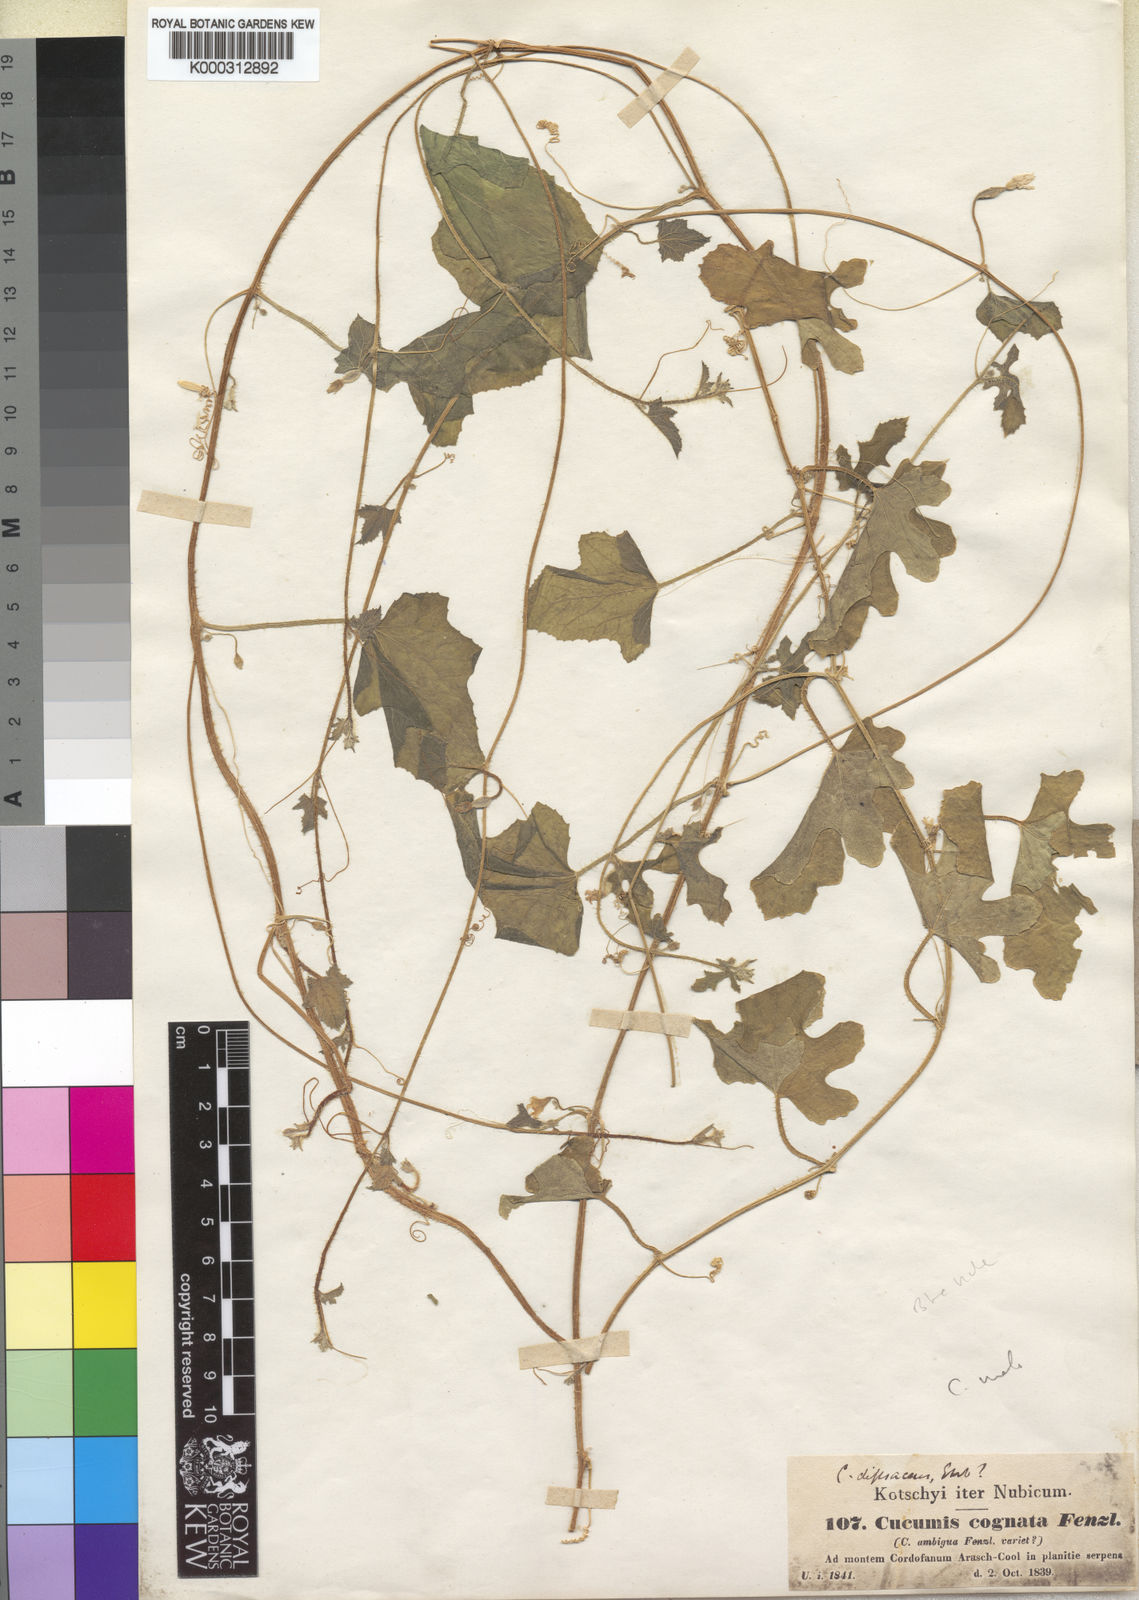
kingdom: Plantae
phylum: Tracheophyta
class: Magnoliopsida
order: Cucurbitales
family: Cucurbitaceae
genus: Cucumis
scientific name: Cucumis melo
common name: Melon
